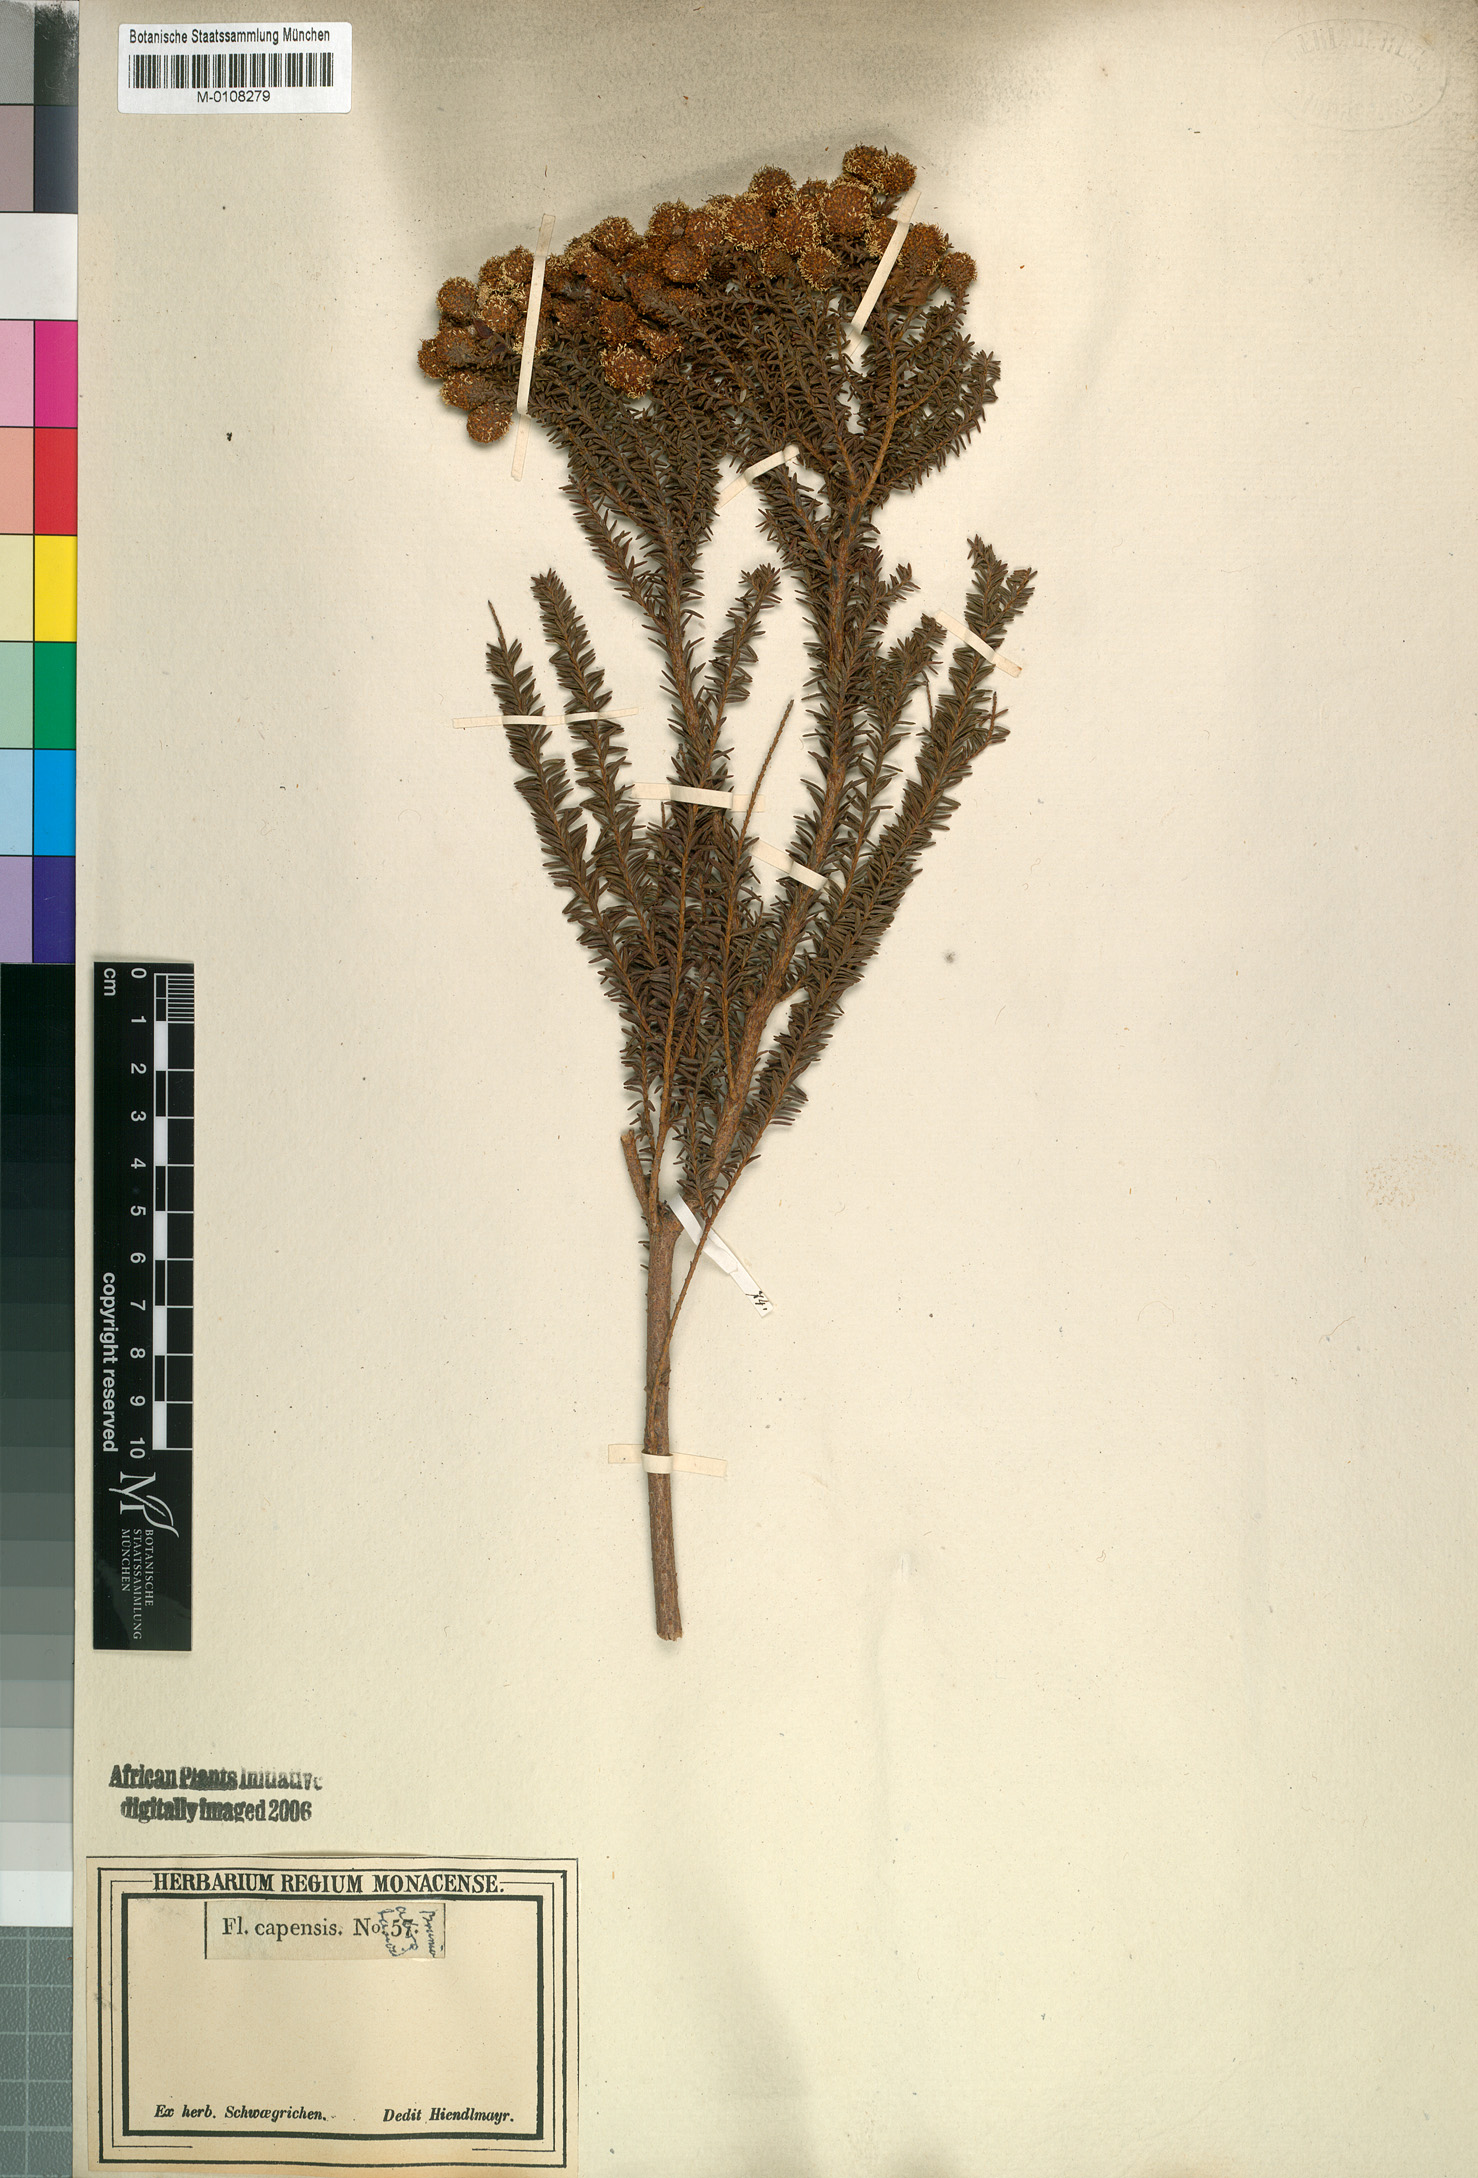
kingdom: Plantae
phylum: Tracheophyta
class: Magnoliopsida
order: Bruniales
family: Bruniaceae
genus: Berzelia
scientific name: Berzelia abrotanoides
